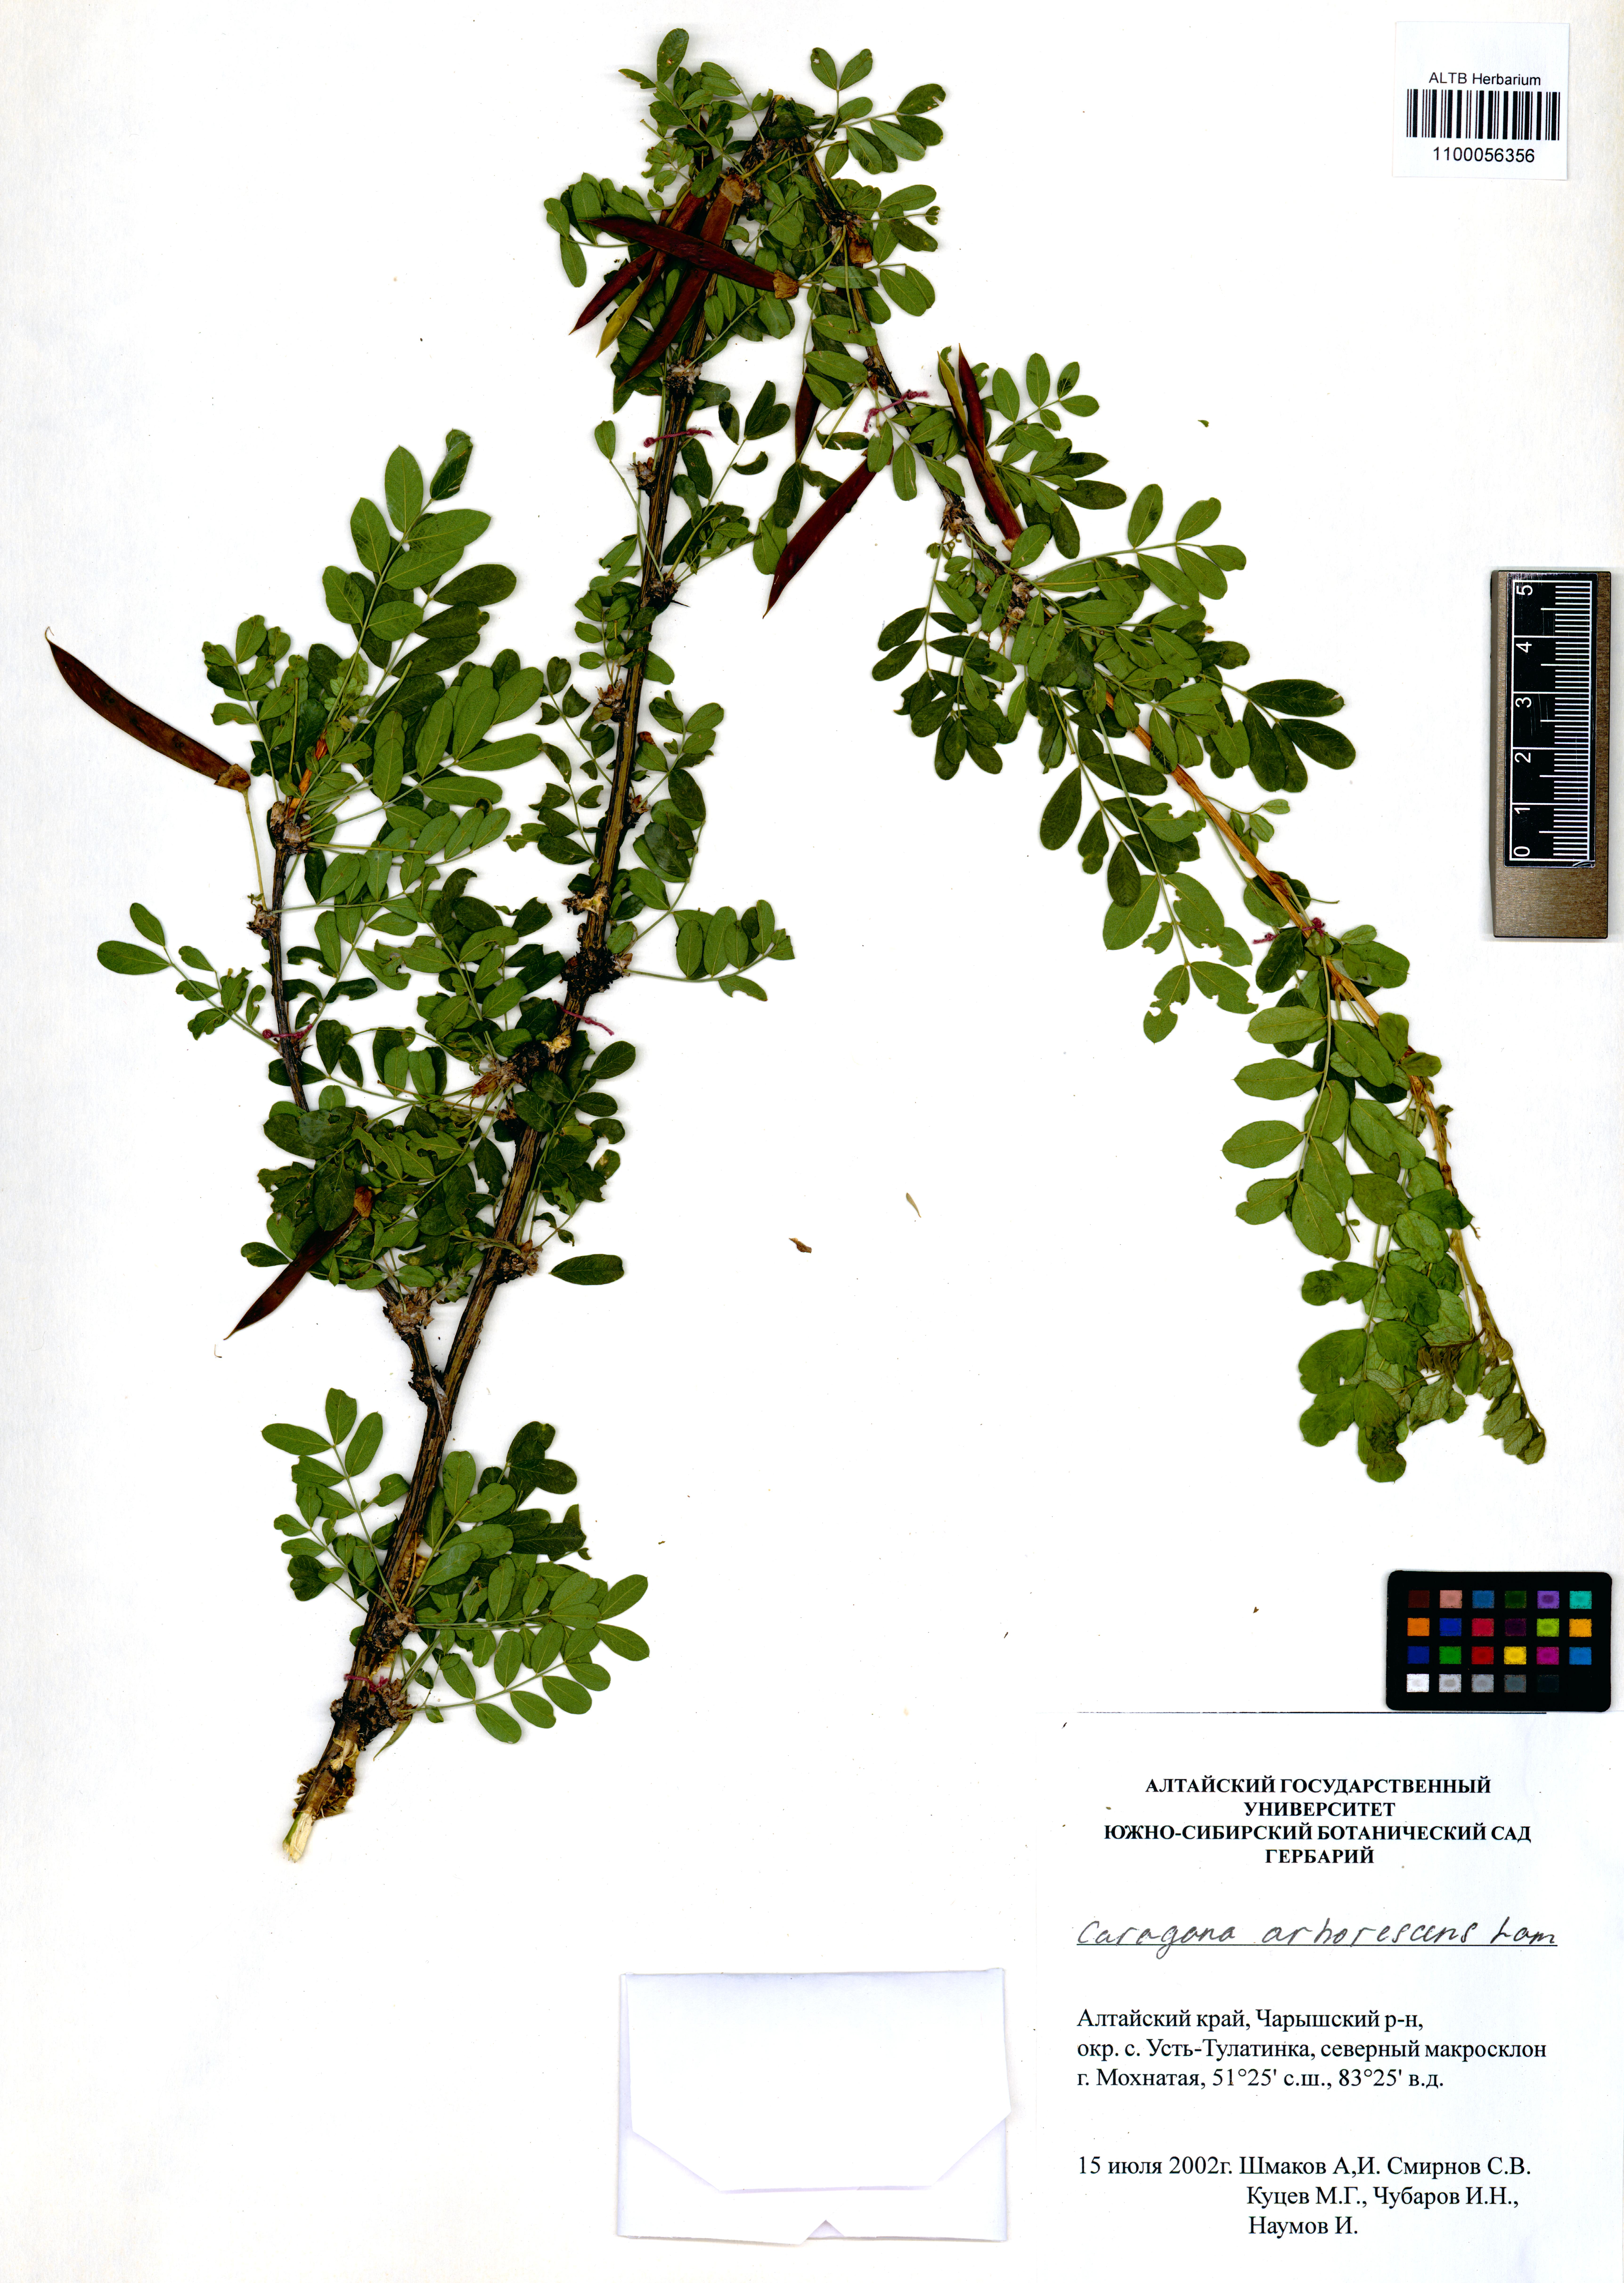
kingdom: Plantae
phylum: Tracheophyta
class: Magnoliopsida
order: Fabales
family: Fabaceae
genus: Caragana
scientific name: Caragana arborescens
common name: Siberian peashrub
